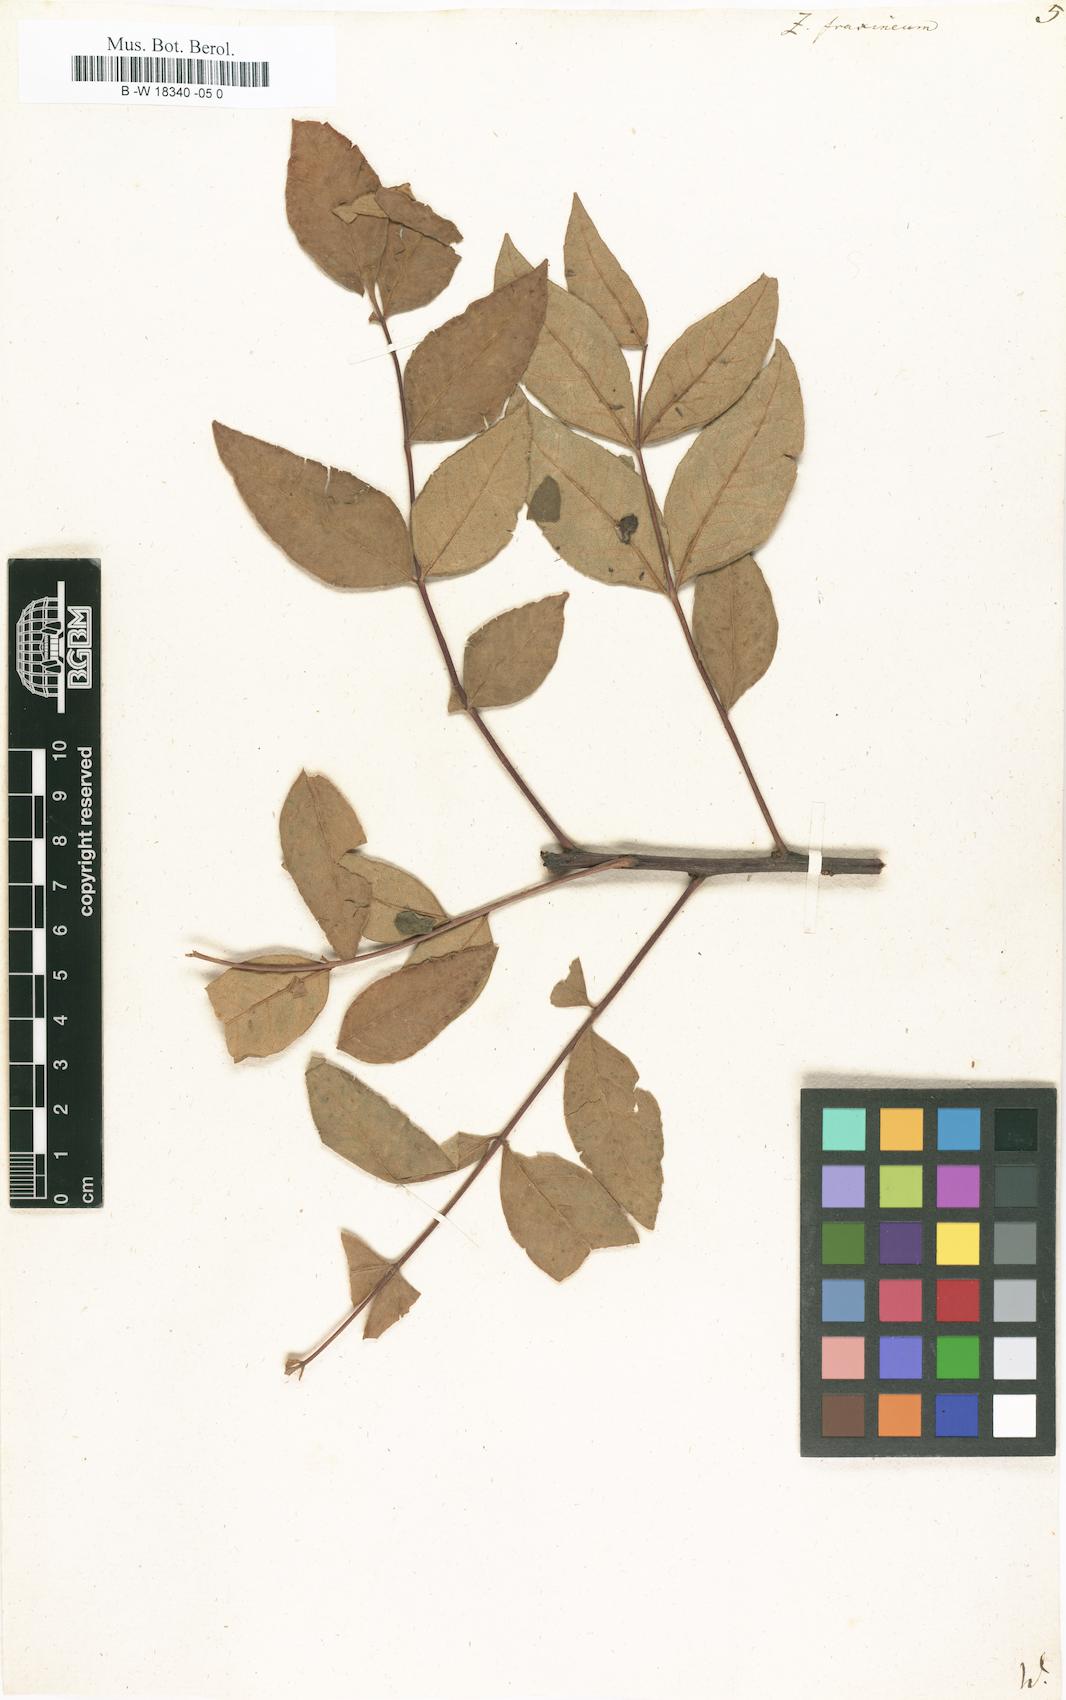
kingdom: Plantae
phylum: Tracheophyta
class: Magnoliopsida
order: Sapindales
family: Rutaceae
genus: Zanthoxylum
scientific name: Zanthoxylum americanum
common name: Northern prickly-ash
